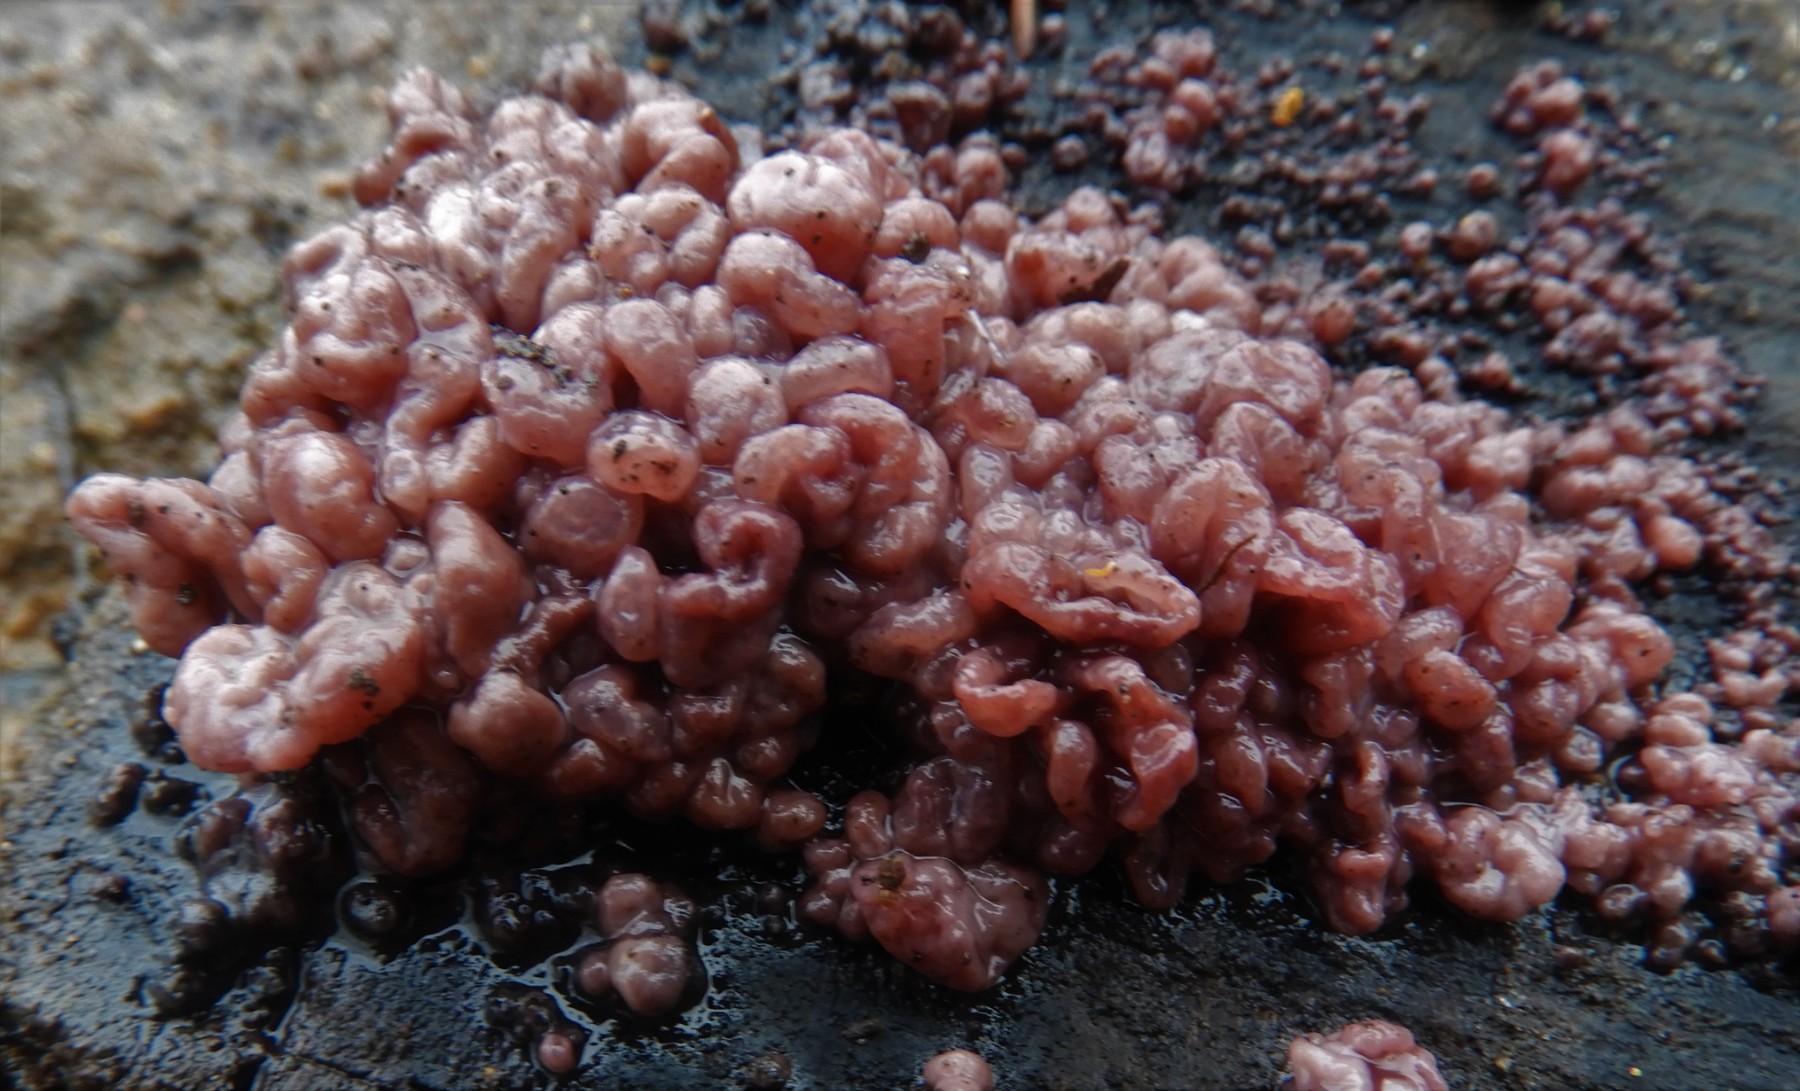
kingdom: Fungi
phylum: Ascomycota
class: Leotiomycetes
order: Helotiales
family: Gelatinodiscaceae
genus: Ascocoryne
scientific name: Ascocoryne sarcoides
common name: rødlilla sejskive
